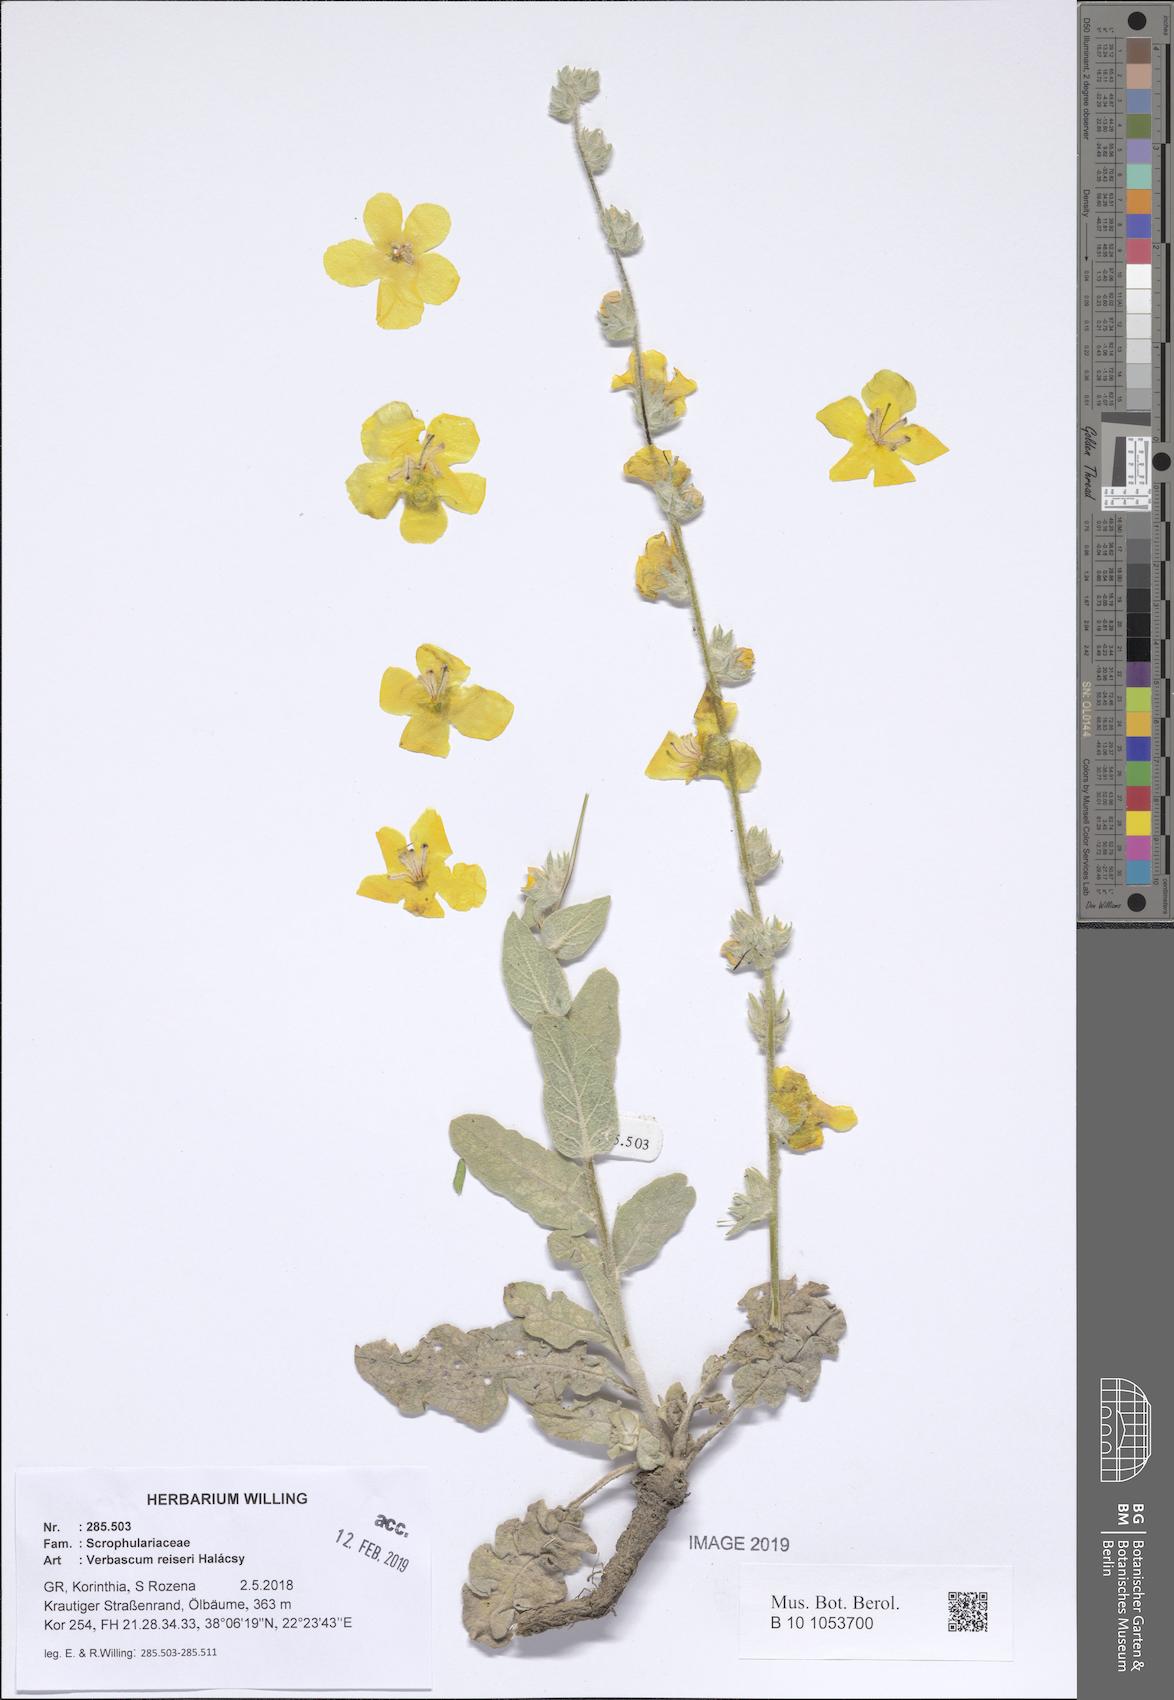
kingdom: Plantae
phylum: Tracheophyta
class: Magnoliopsida
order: Lamiales
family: Scrophulariaceae
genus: Verbascum
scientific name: Verbascum reiseri
